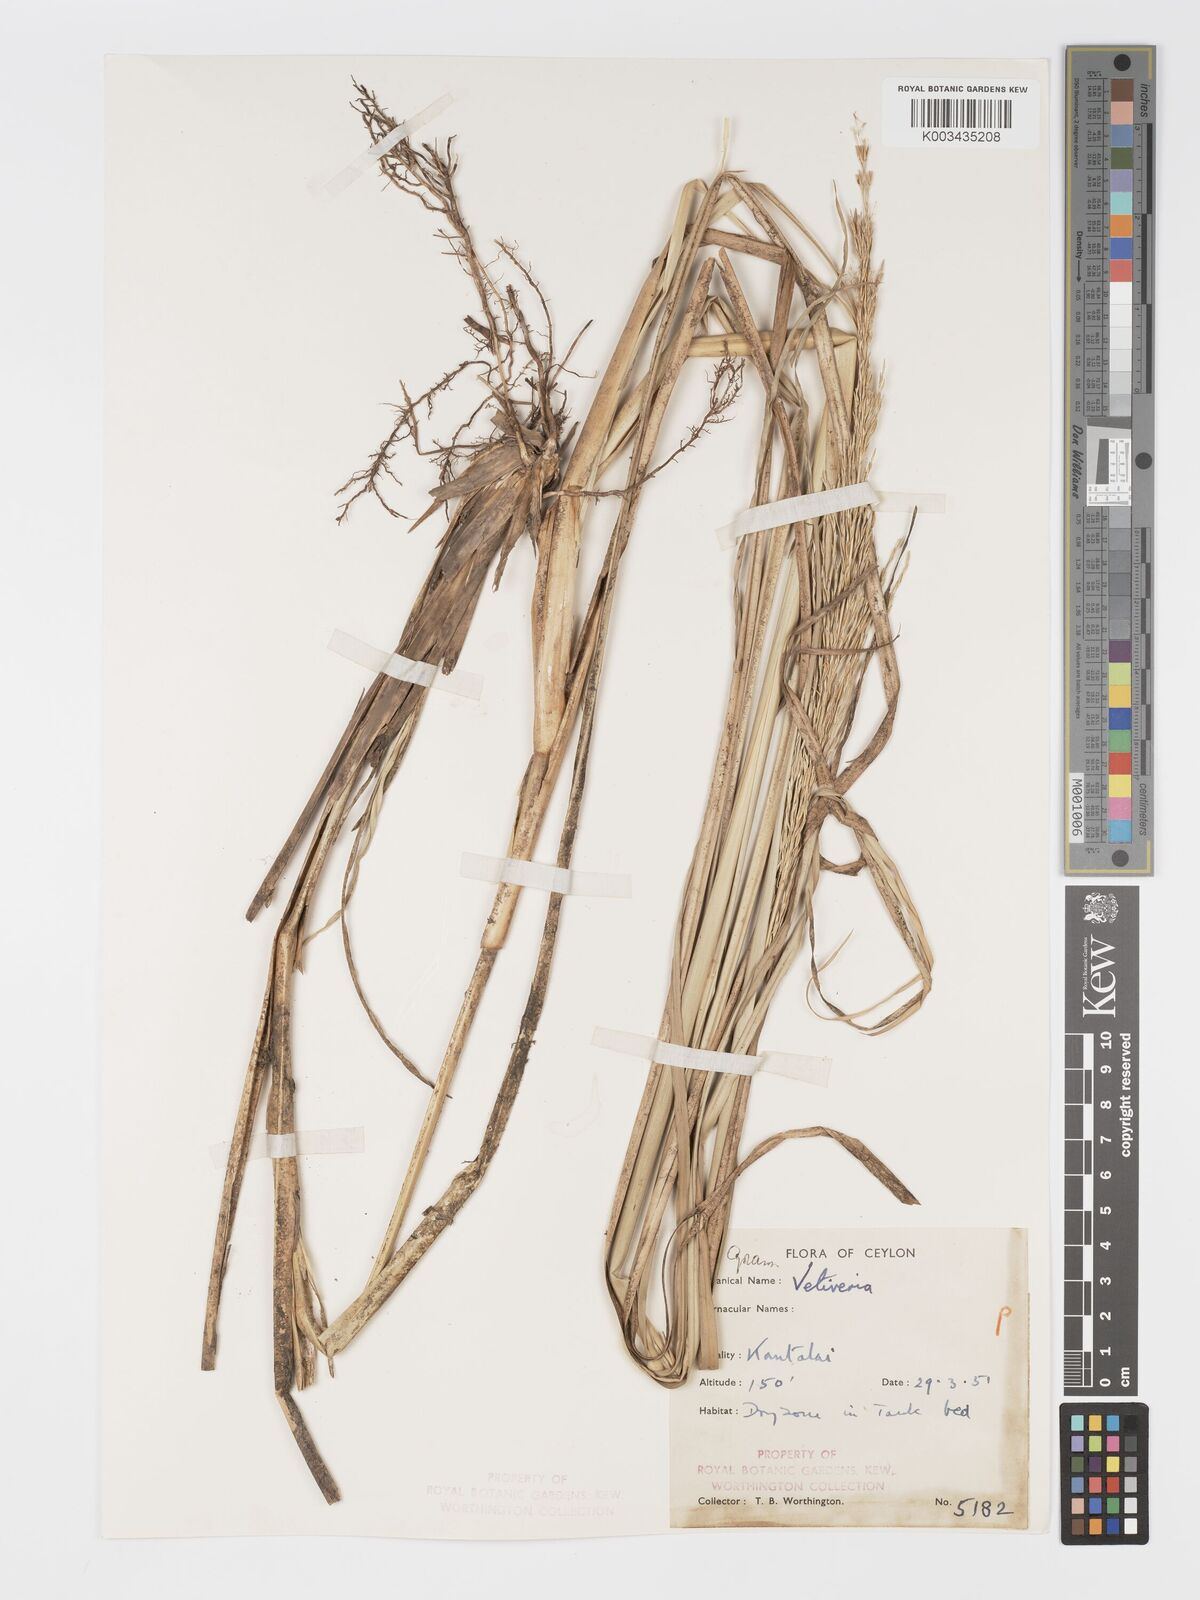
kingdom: Plantae
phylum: Tracheophyta
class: Liliopsida
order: Poales
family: Poaceae
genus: Chrysopogon
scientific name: Chrysopogon zizanioides
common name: False beardgrass
